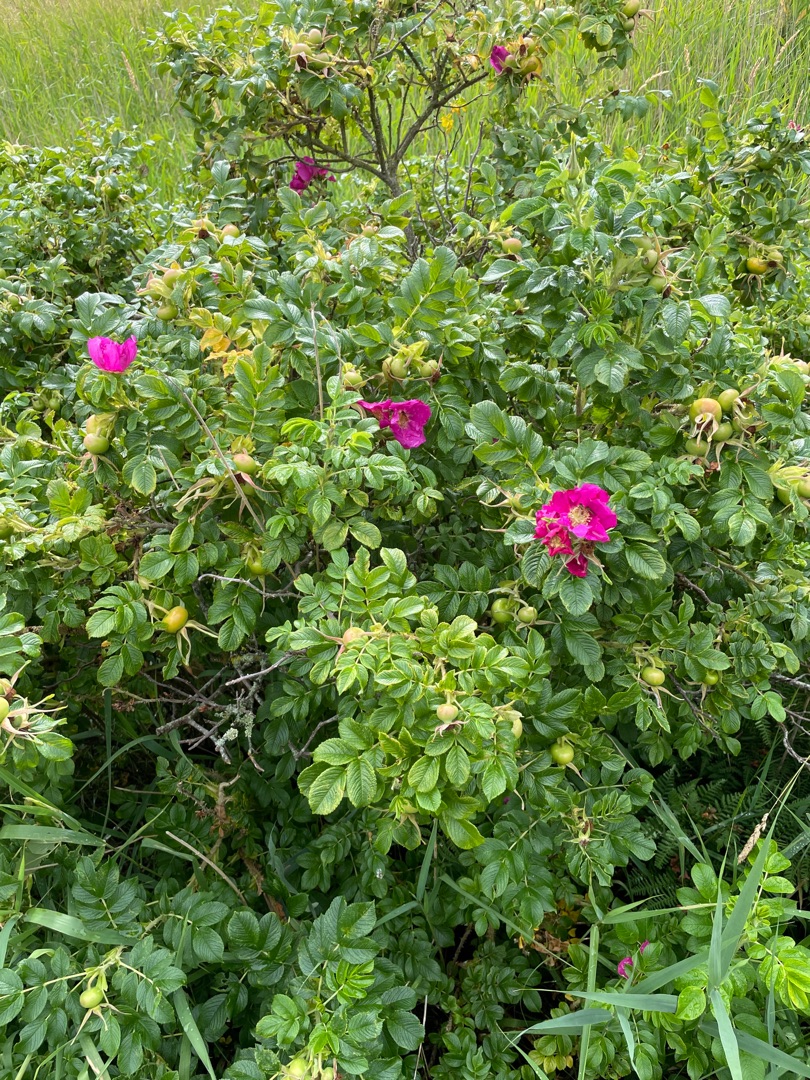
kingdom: Plantae
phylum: Tracheophyta
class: Magnoliopsida
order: Rosales
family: Rosaceae
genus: Rosa
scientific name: Rosa rugosa
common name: Rynket rose
